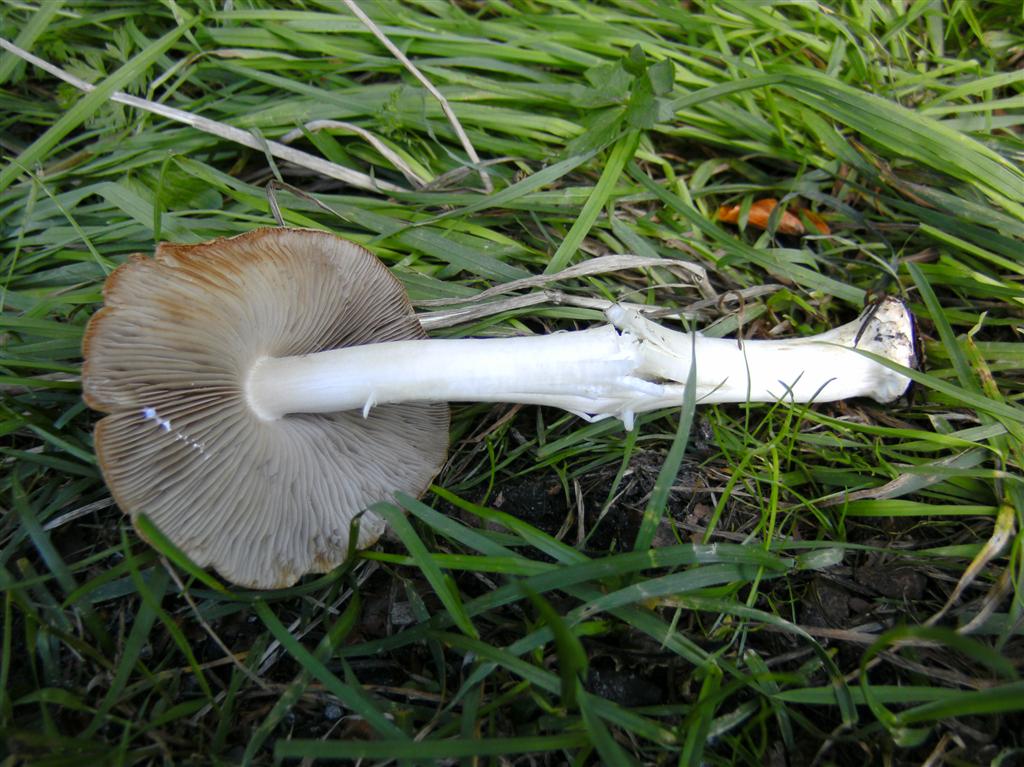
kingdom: Fungi
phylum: Basidiomycota
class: Agaricomycetes
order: Agaricales
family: Inocybaceae
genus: Inocybe
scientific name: Inocybe margaritispora
